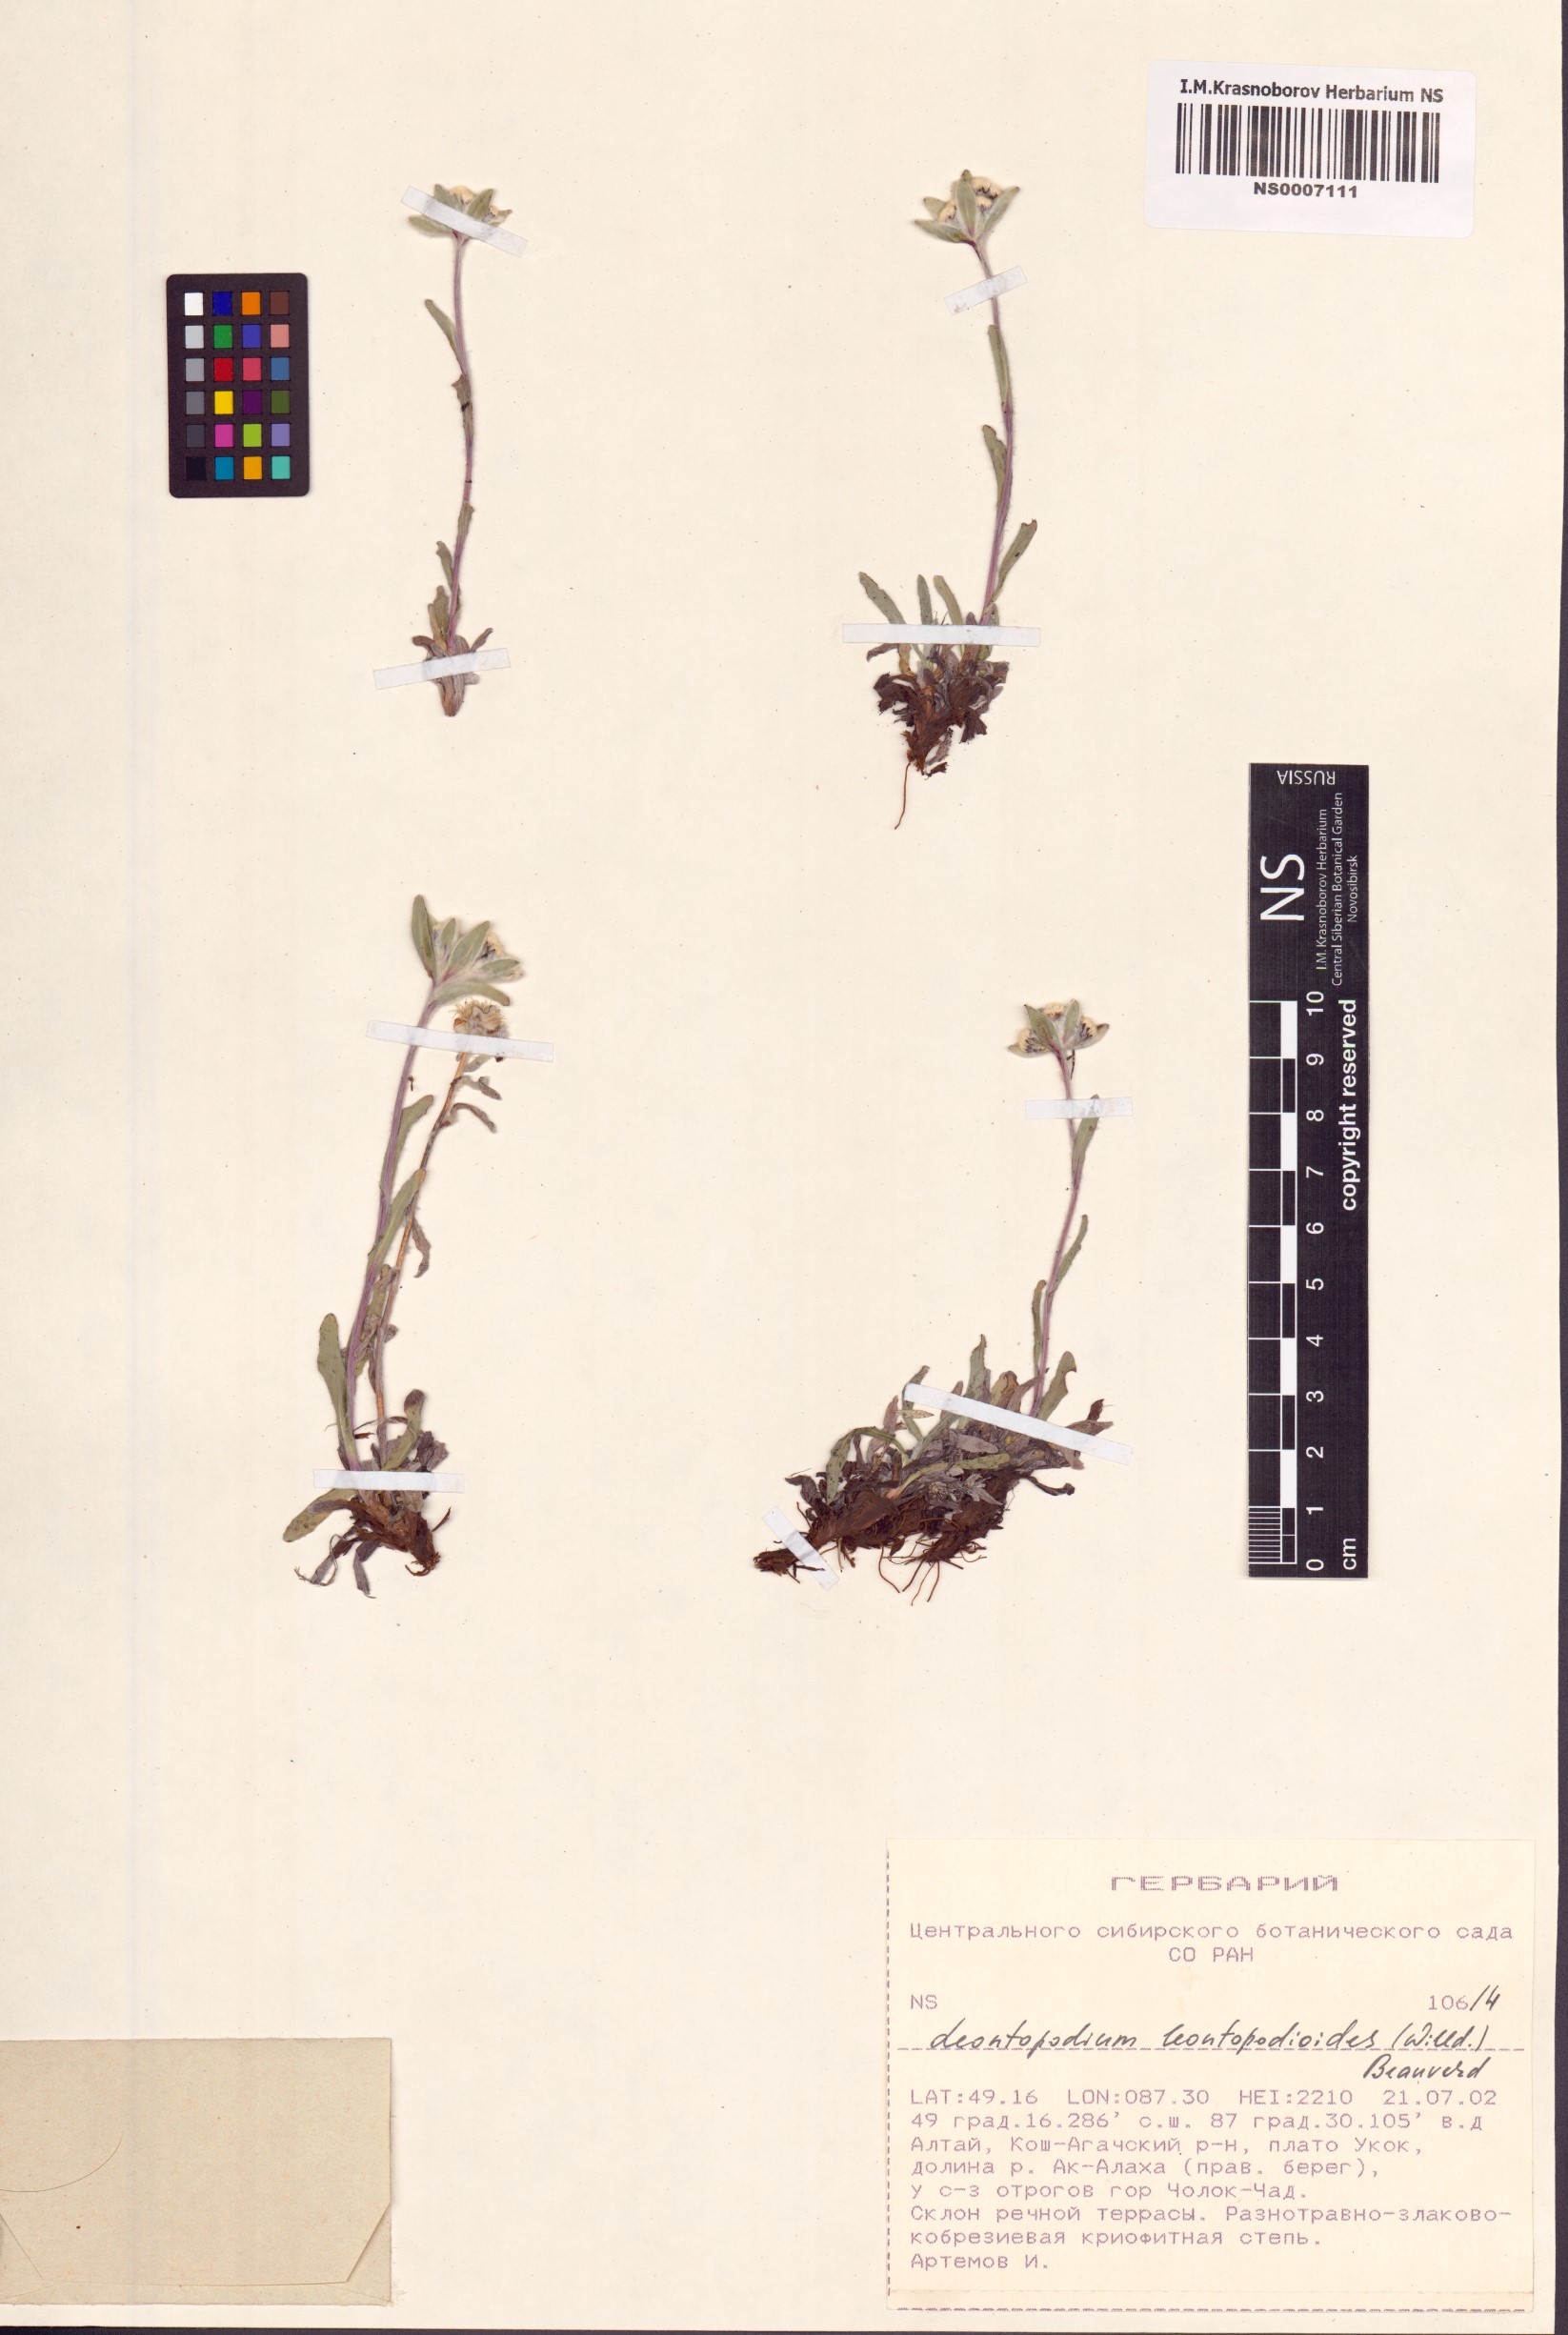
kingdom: Plantae
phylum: Tracheophyta
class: Magnoliopsida
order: Asterales
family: Asteraceae
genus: Leontopodium
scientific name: Leontopodium leontopodioides
